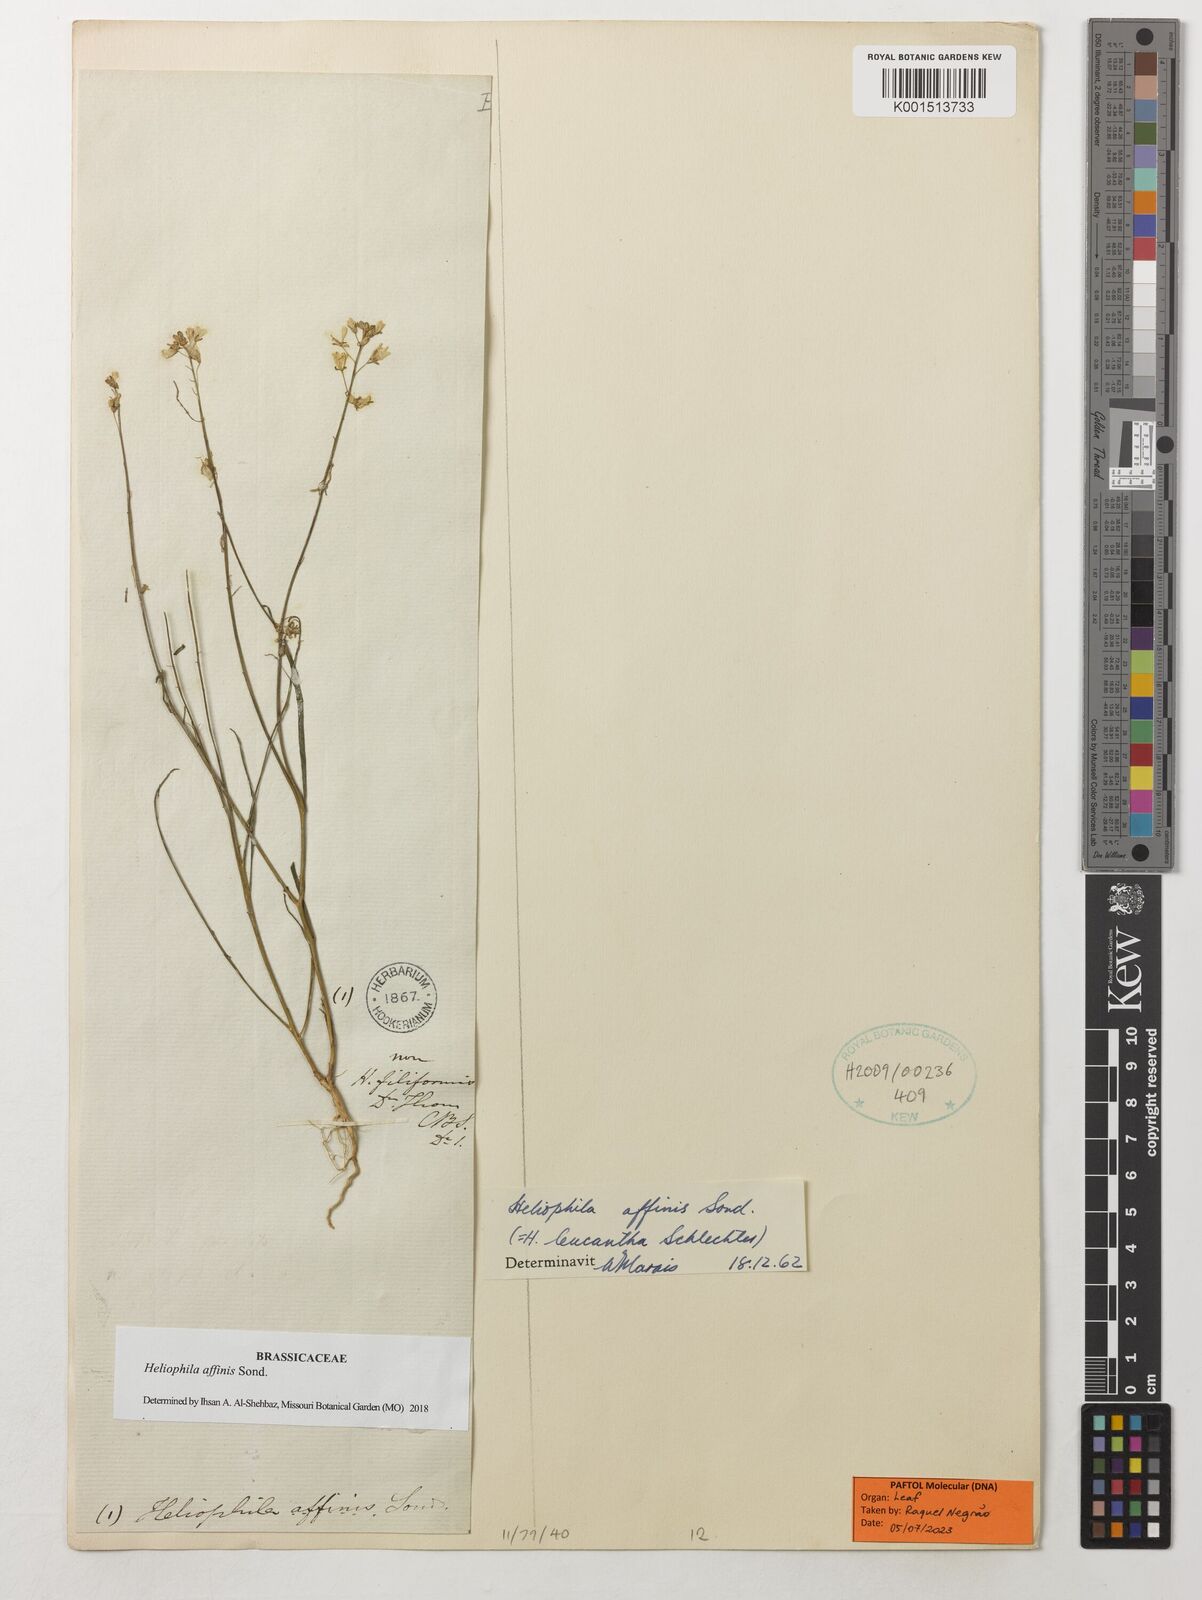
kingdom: Plantae
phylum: Tracheophyta
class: Magnoliopsida
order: Brassicales
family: Brassicaceae
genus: Heliophila
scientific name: Heliophila affinis
